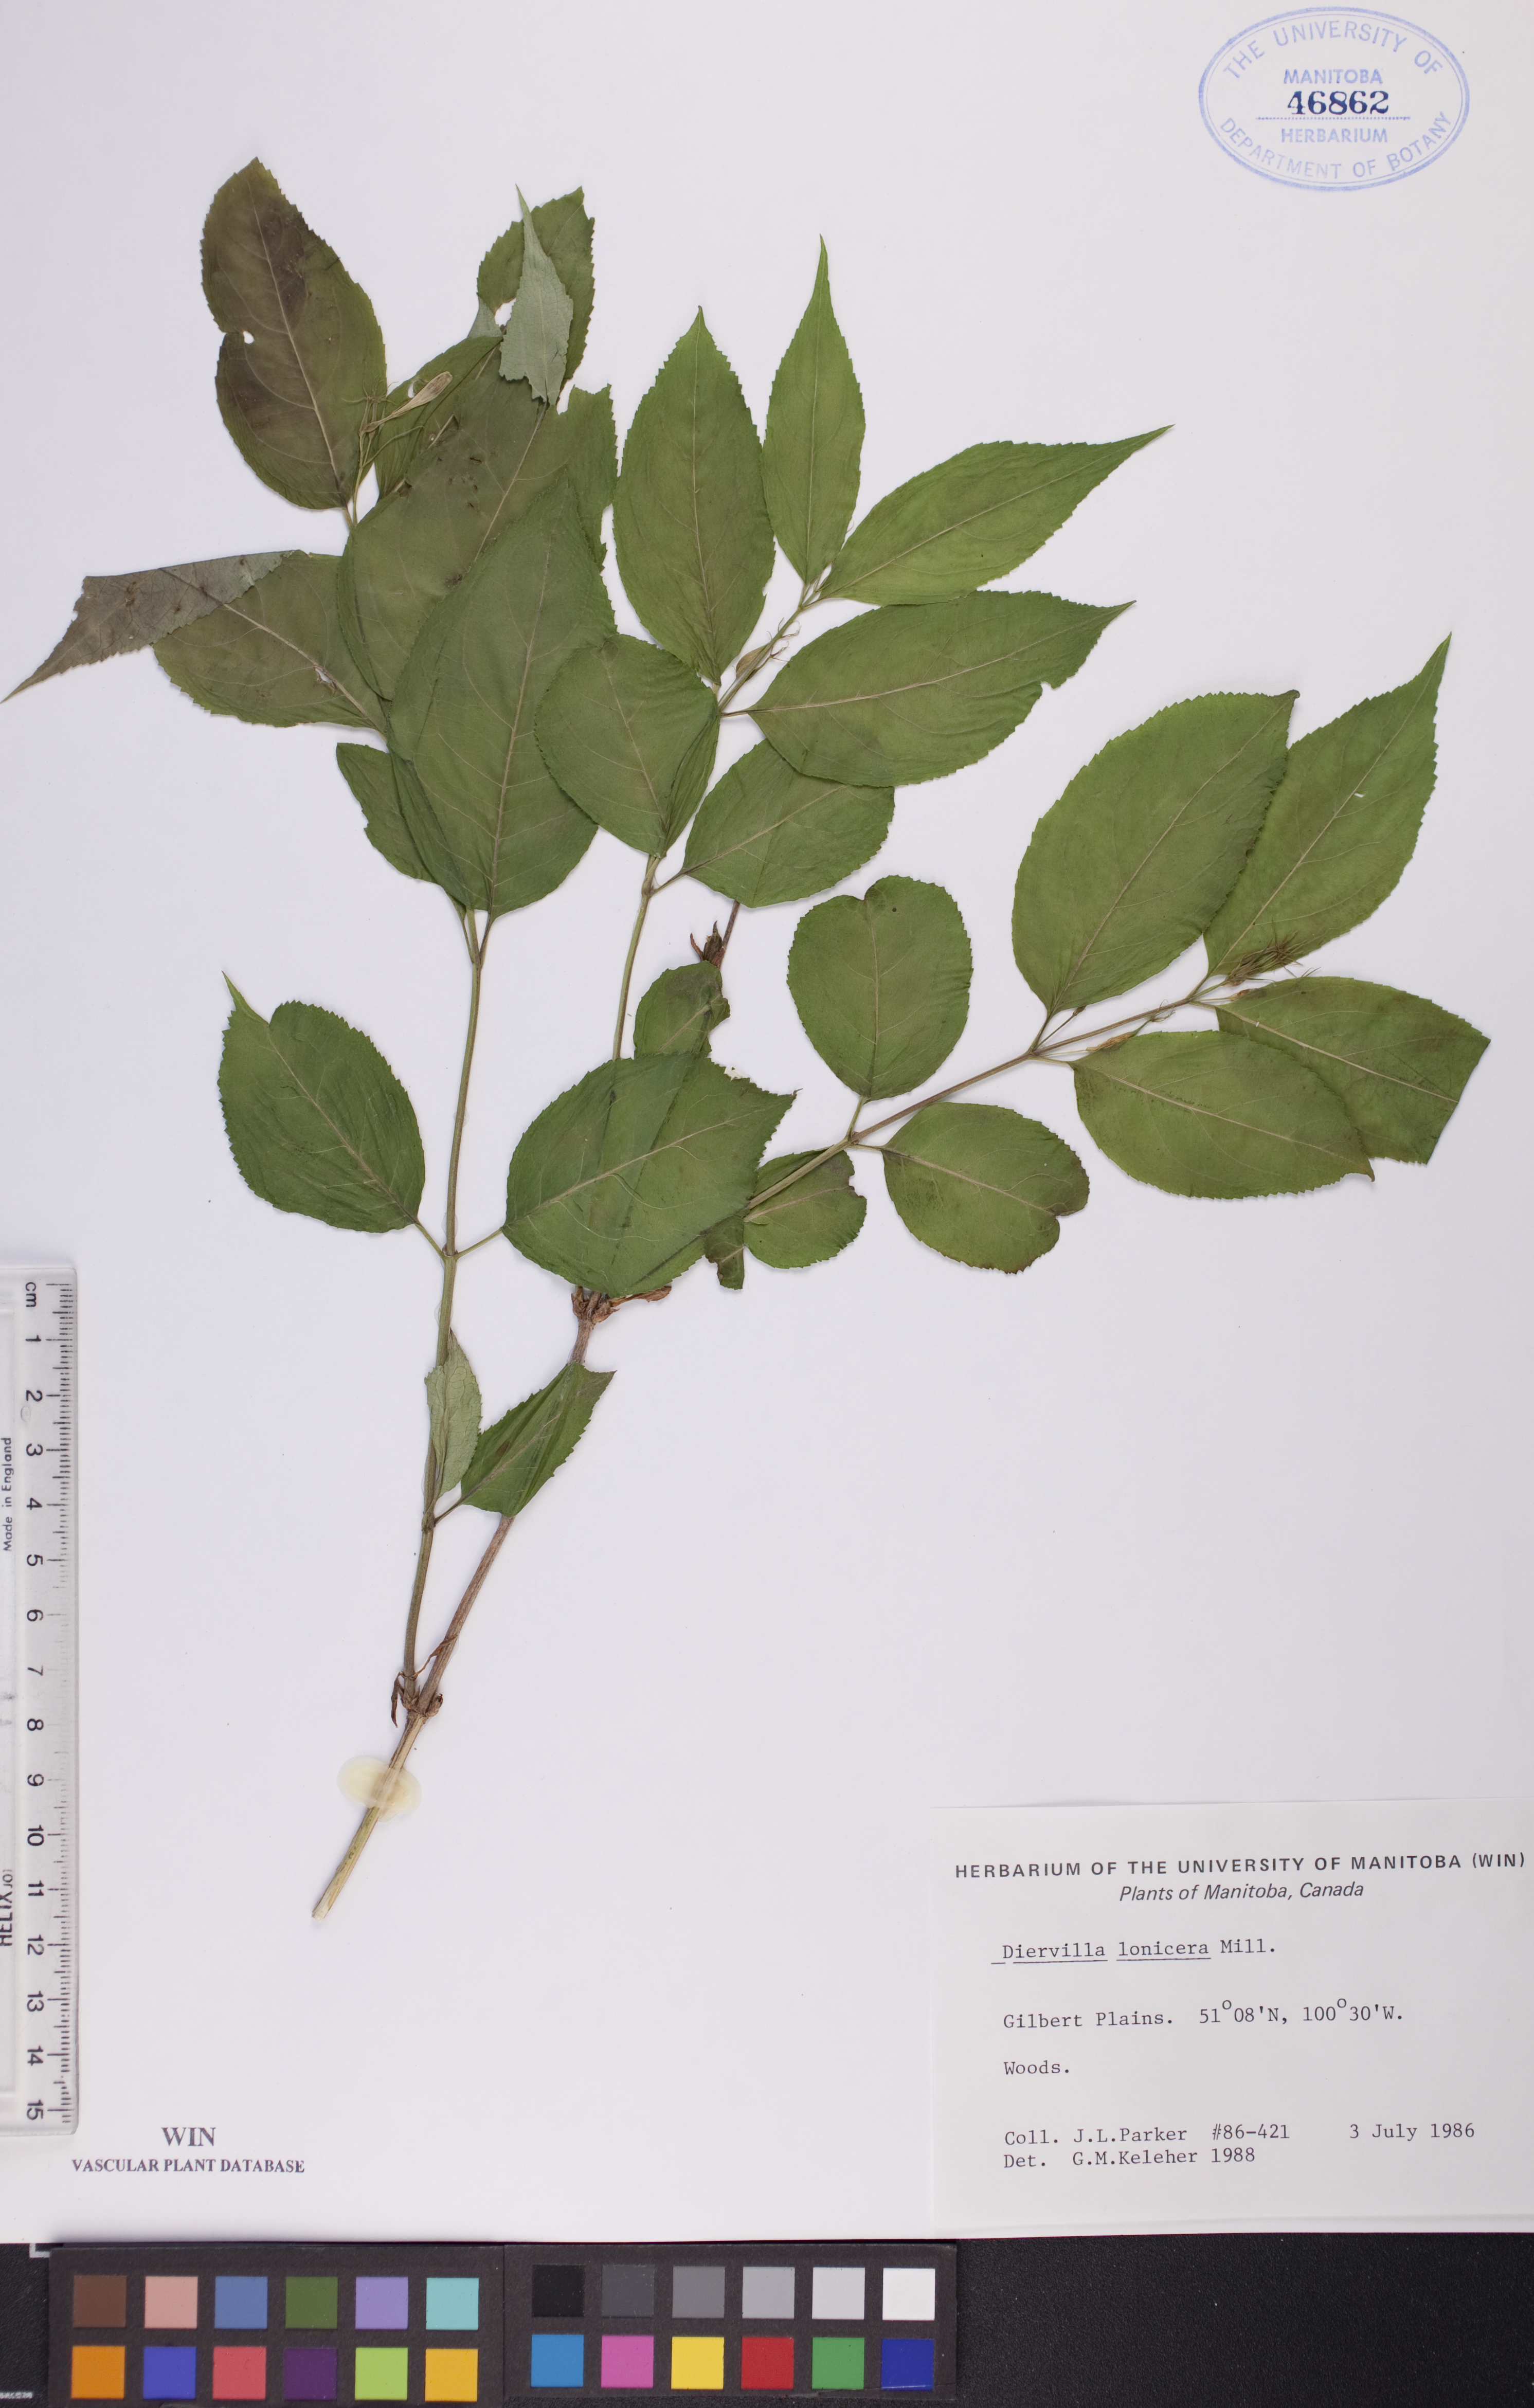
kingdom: Plantae
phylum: Tracheophyta
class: Magnoliopsida
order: Dipsacales
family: Caprifoliaceae
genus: Diervilla
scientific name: Diervilla lonicera
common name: Bush-honeysuckle
